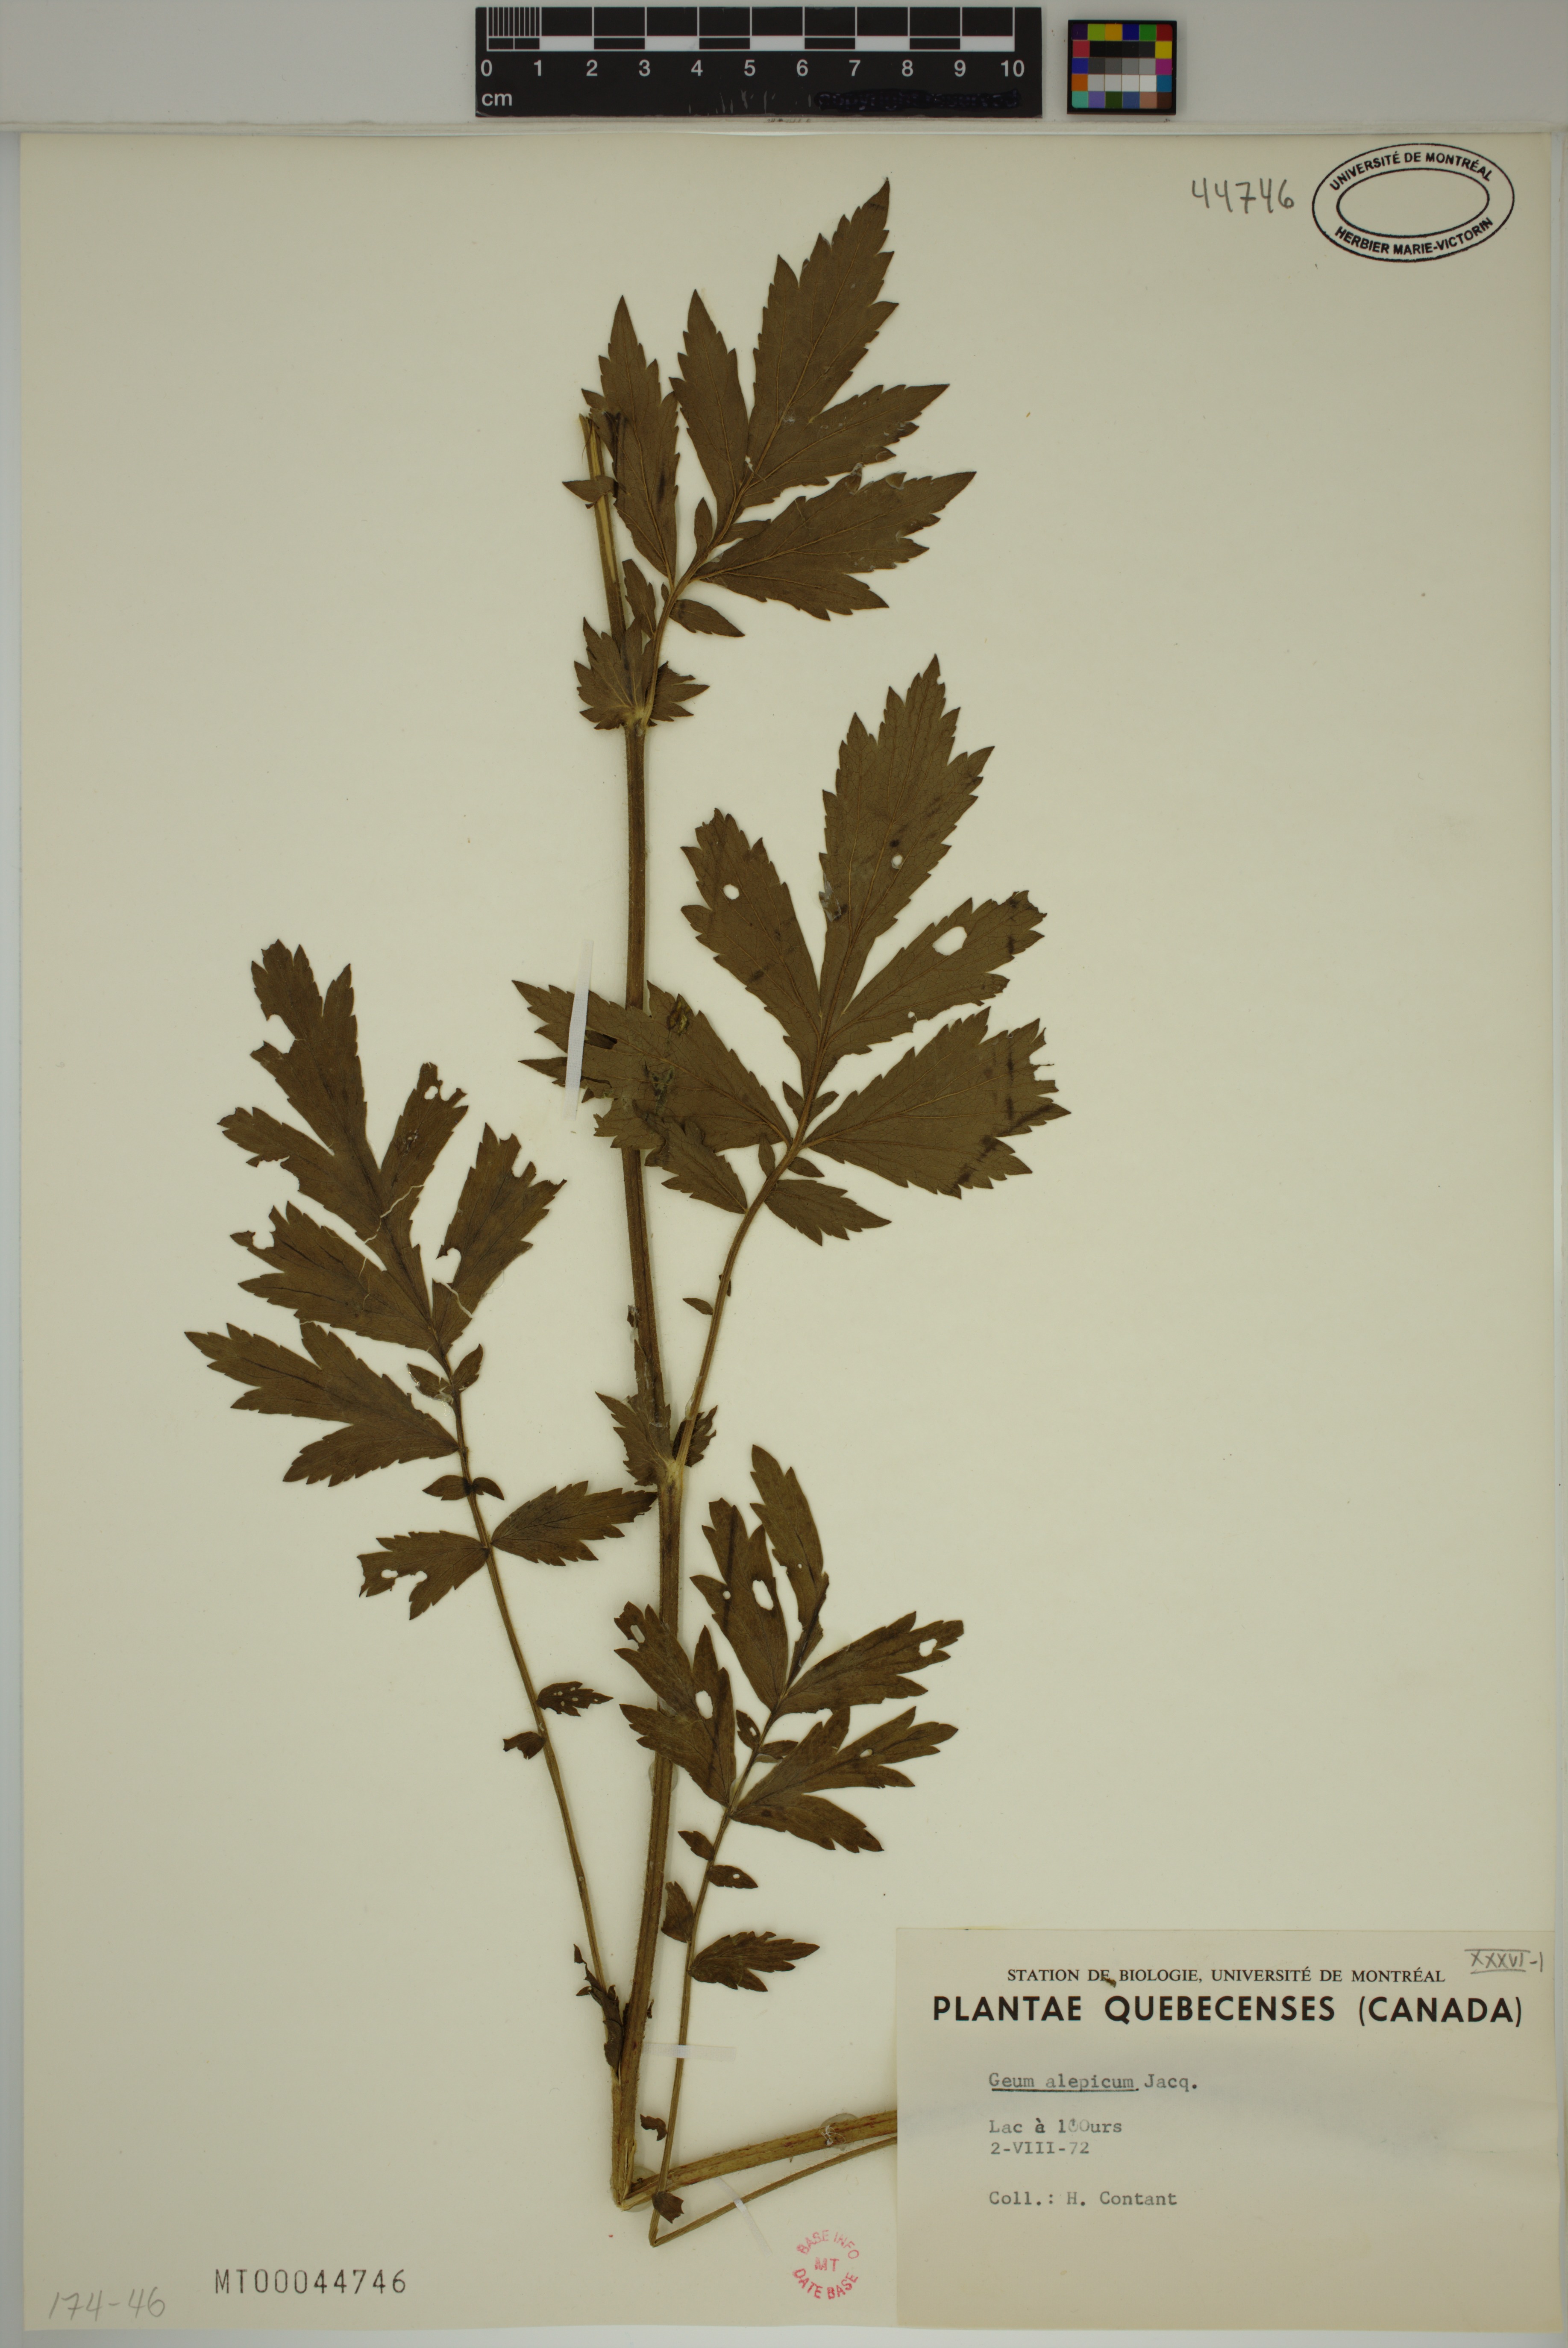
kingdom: Plantae
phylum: Tracheophyta
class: Magnoliopsida
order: Rosales
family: Rosaceae
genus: Geum
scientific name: Geum aleppicum
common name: Yellow avens
